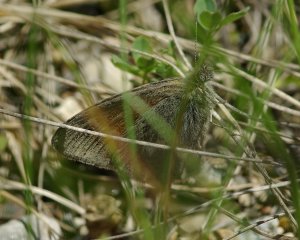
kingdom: Animalia
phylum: Arthropoda
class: Insecta
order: Lepidoptera
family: Nymphalidae
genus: Coenonympha
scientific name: Coenonympha tullia
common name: Large Heath
